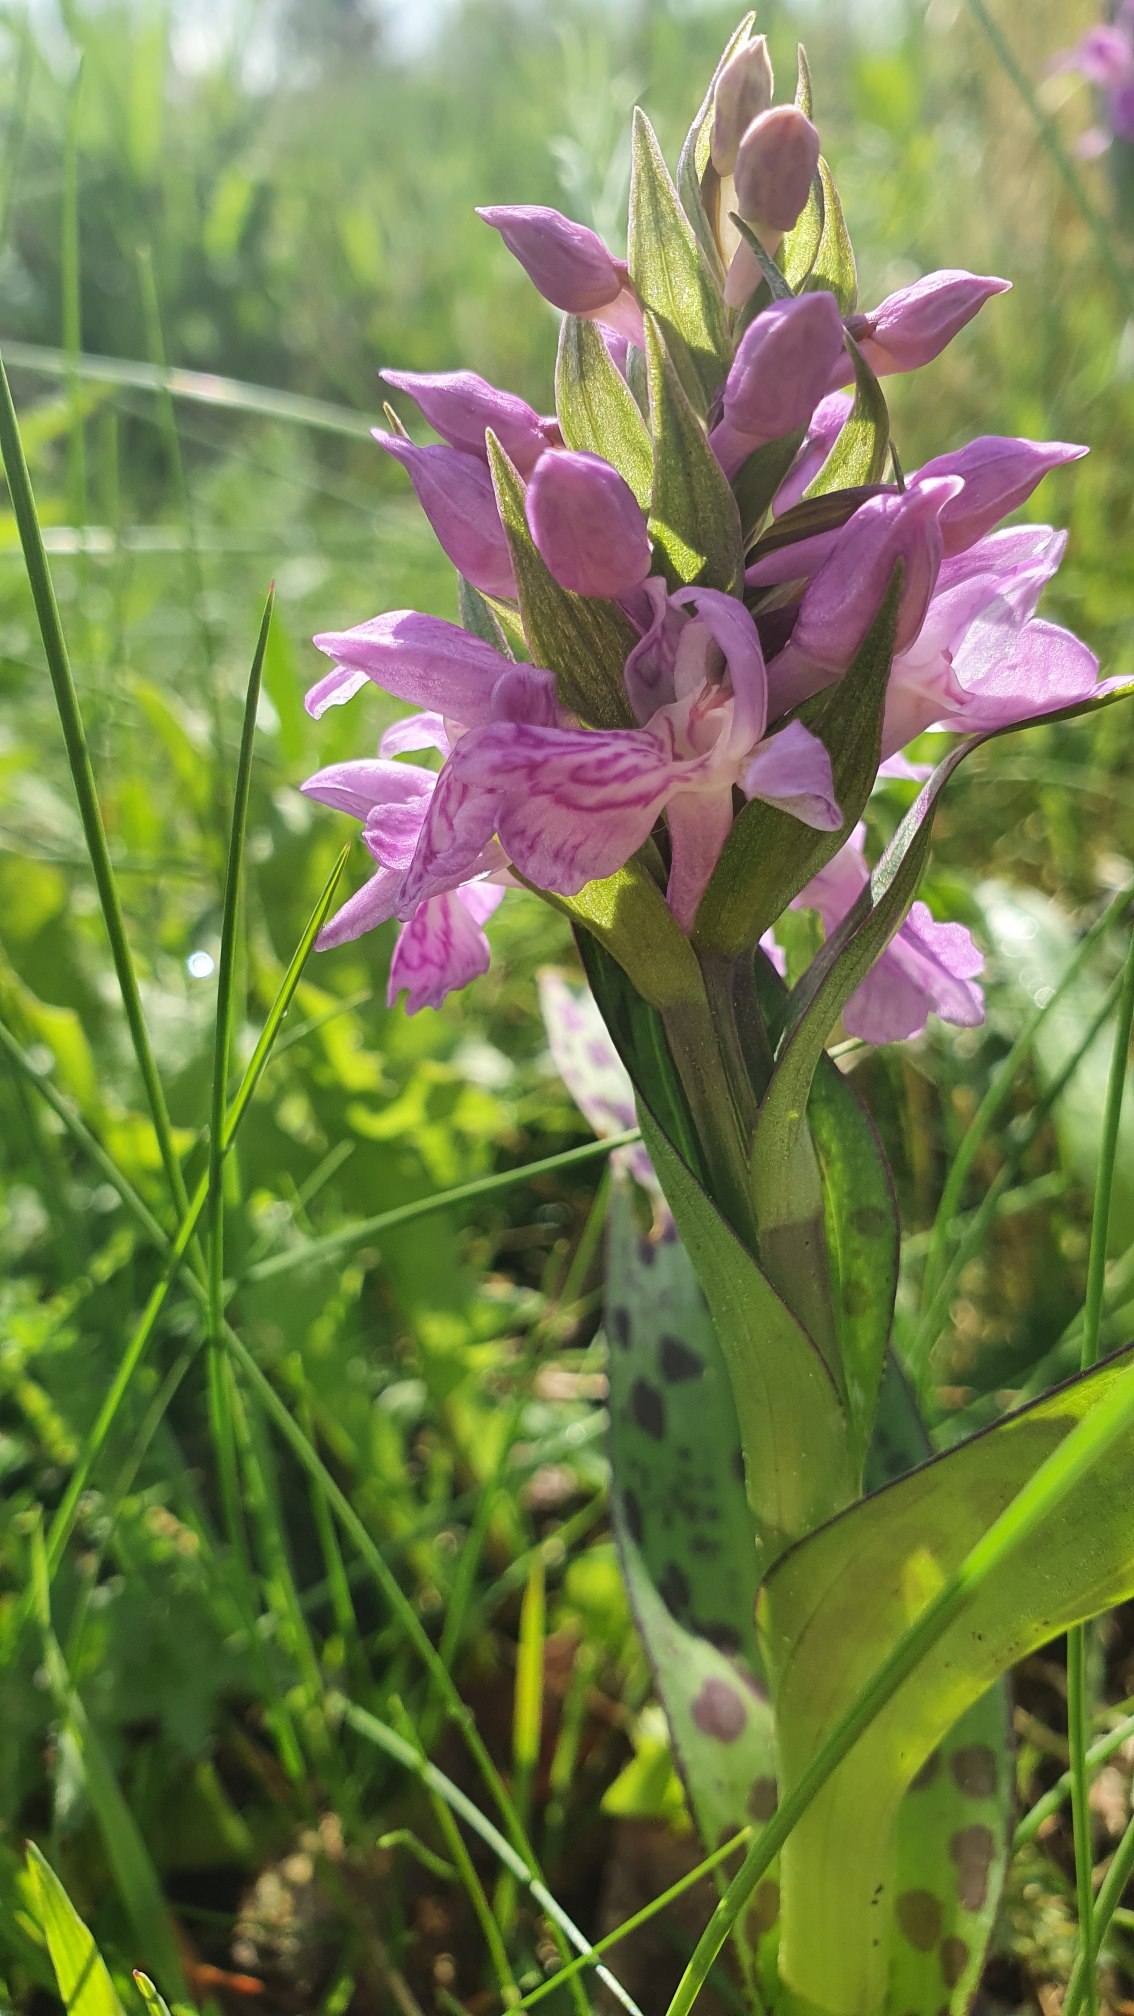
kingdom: Plantae
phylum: Tracheophyta
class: Liliopsida
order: Asparagales
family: Orchidaceae
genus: Dactylorhiza
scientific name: Dactylorhiza majalis
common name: Maj-gøgeurt
